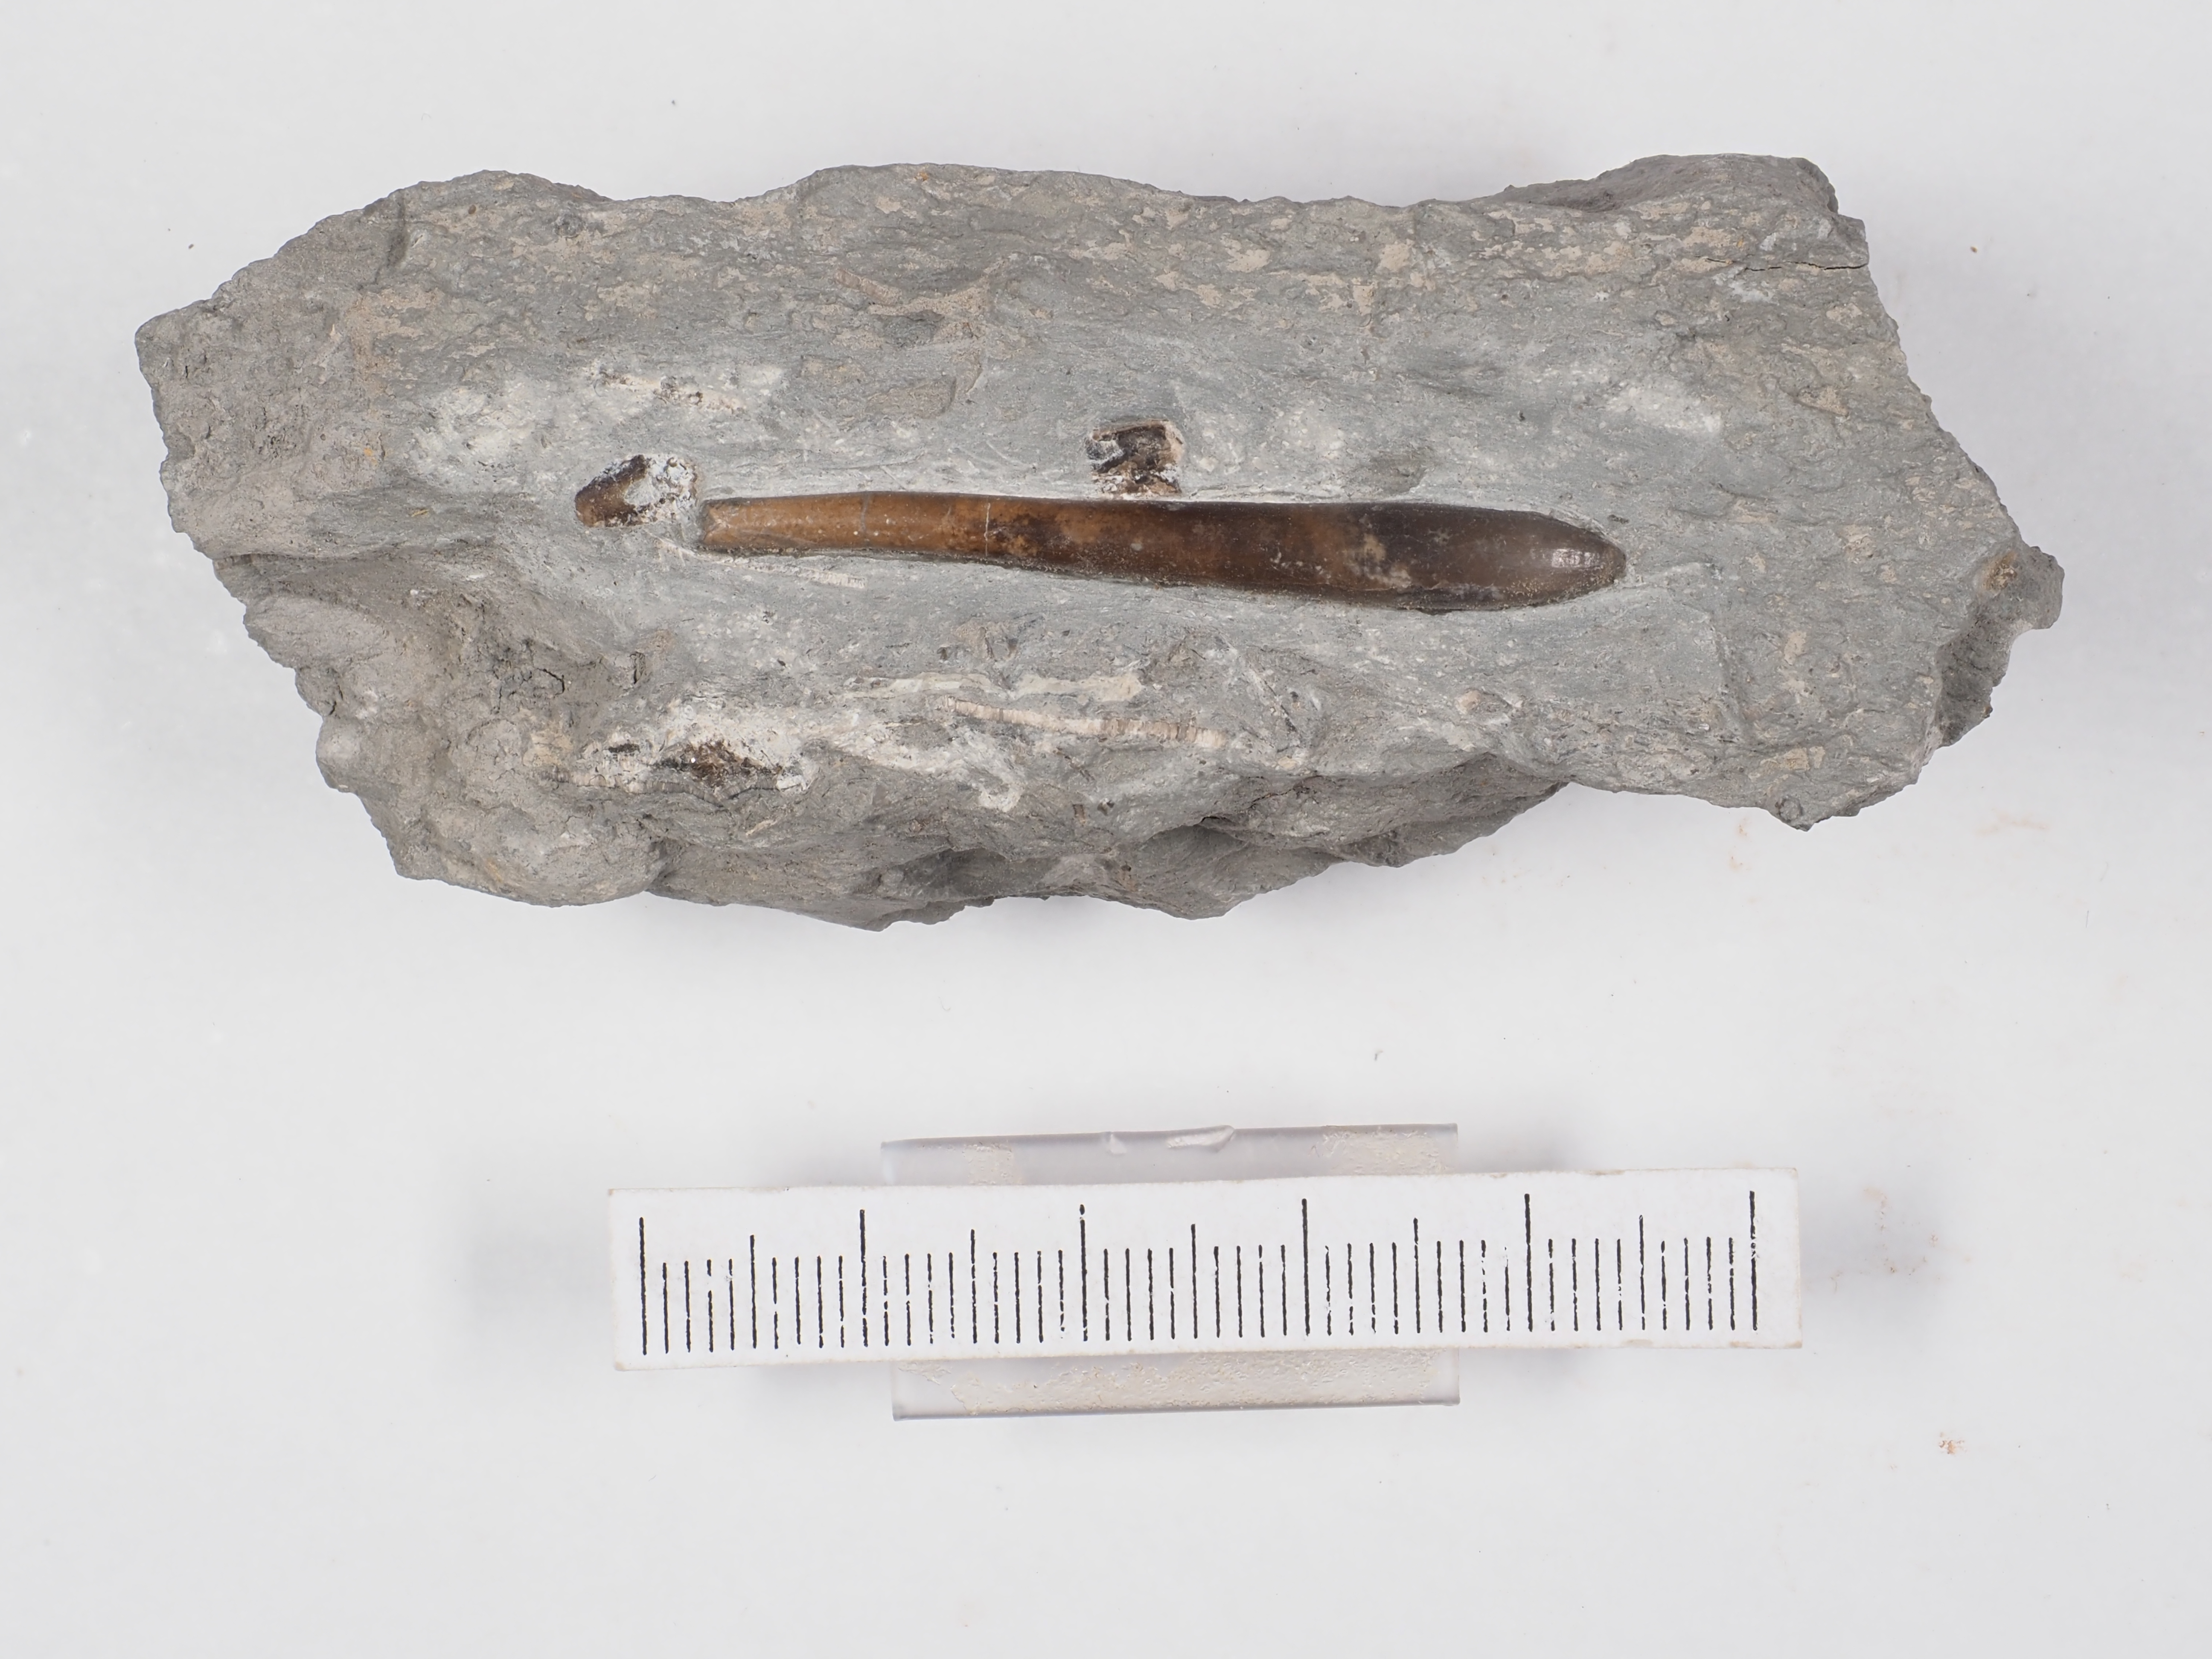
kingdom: Animalia
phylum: Mollusca
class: Cephalopoda
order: Belemnitida
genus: Subhastites
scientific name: Subhastites
